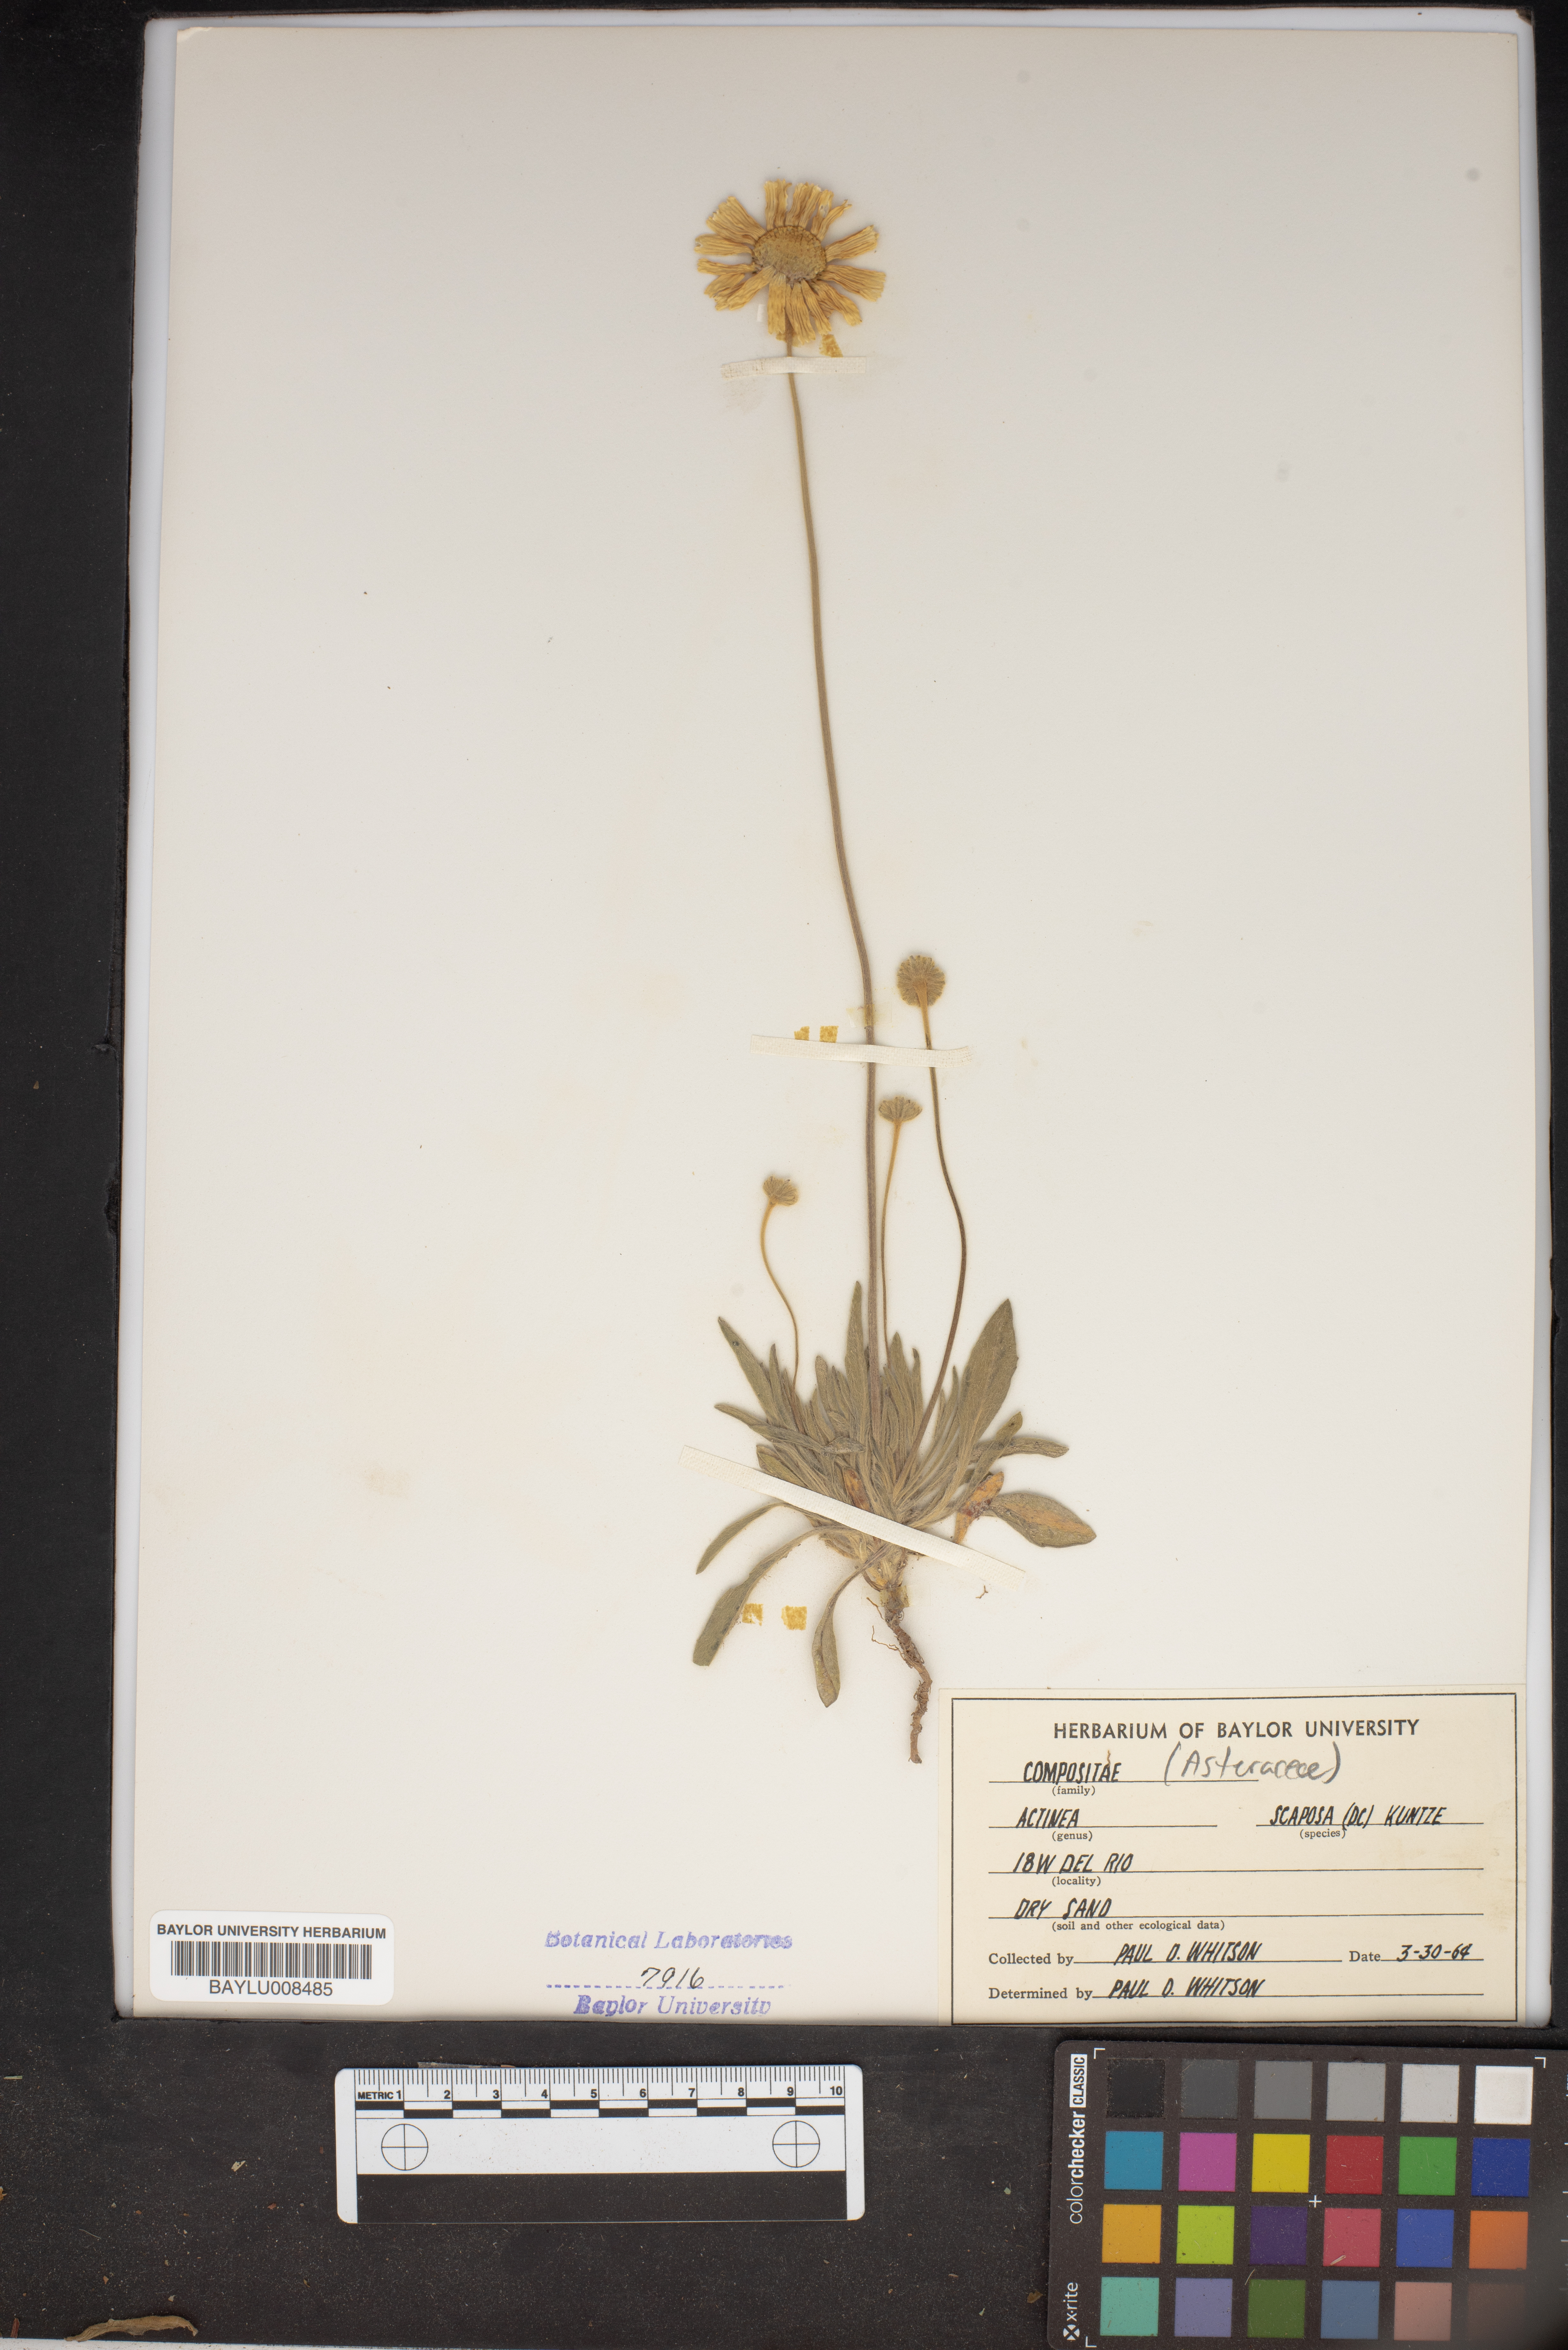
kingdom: Plantae
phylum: Tracheophyta
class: Magnoliopsida
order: Asterales
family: Asteraceae
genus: Tetraneuris
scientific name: Tetraneuris scaposa
